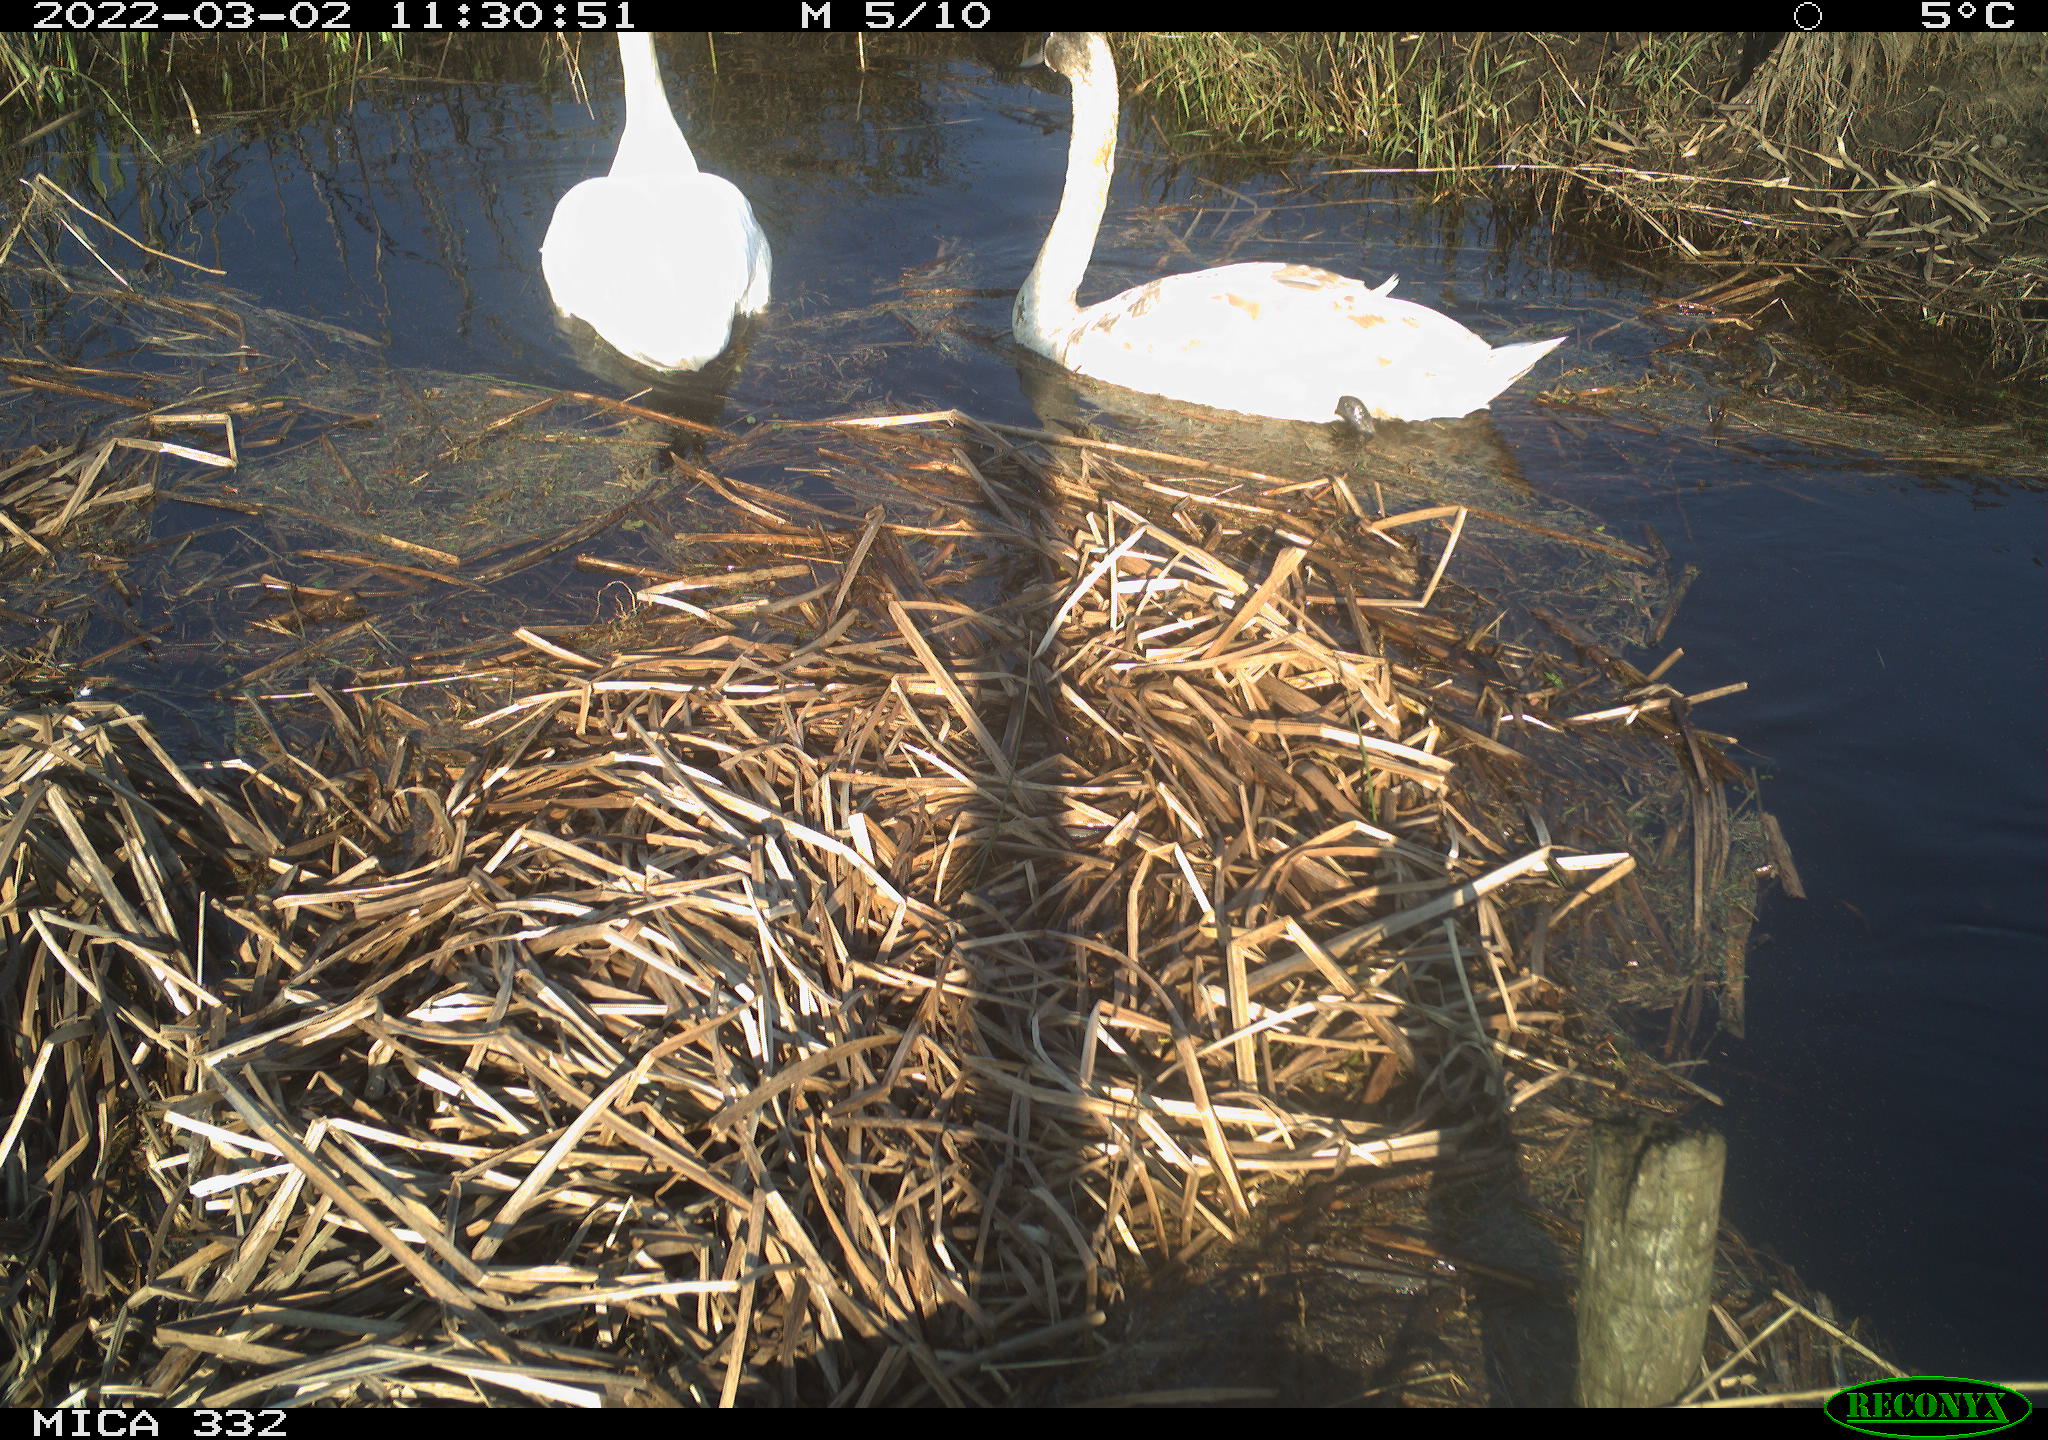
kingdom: Animalia
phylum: Chordata
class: Aves
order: Anseriformes
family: Anatidae
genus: Cygnus
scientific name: Cygnus olor
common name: Mute swan
